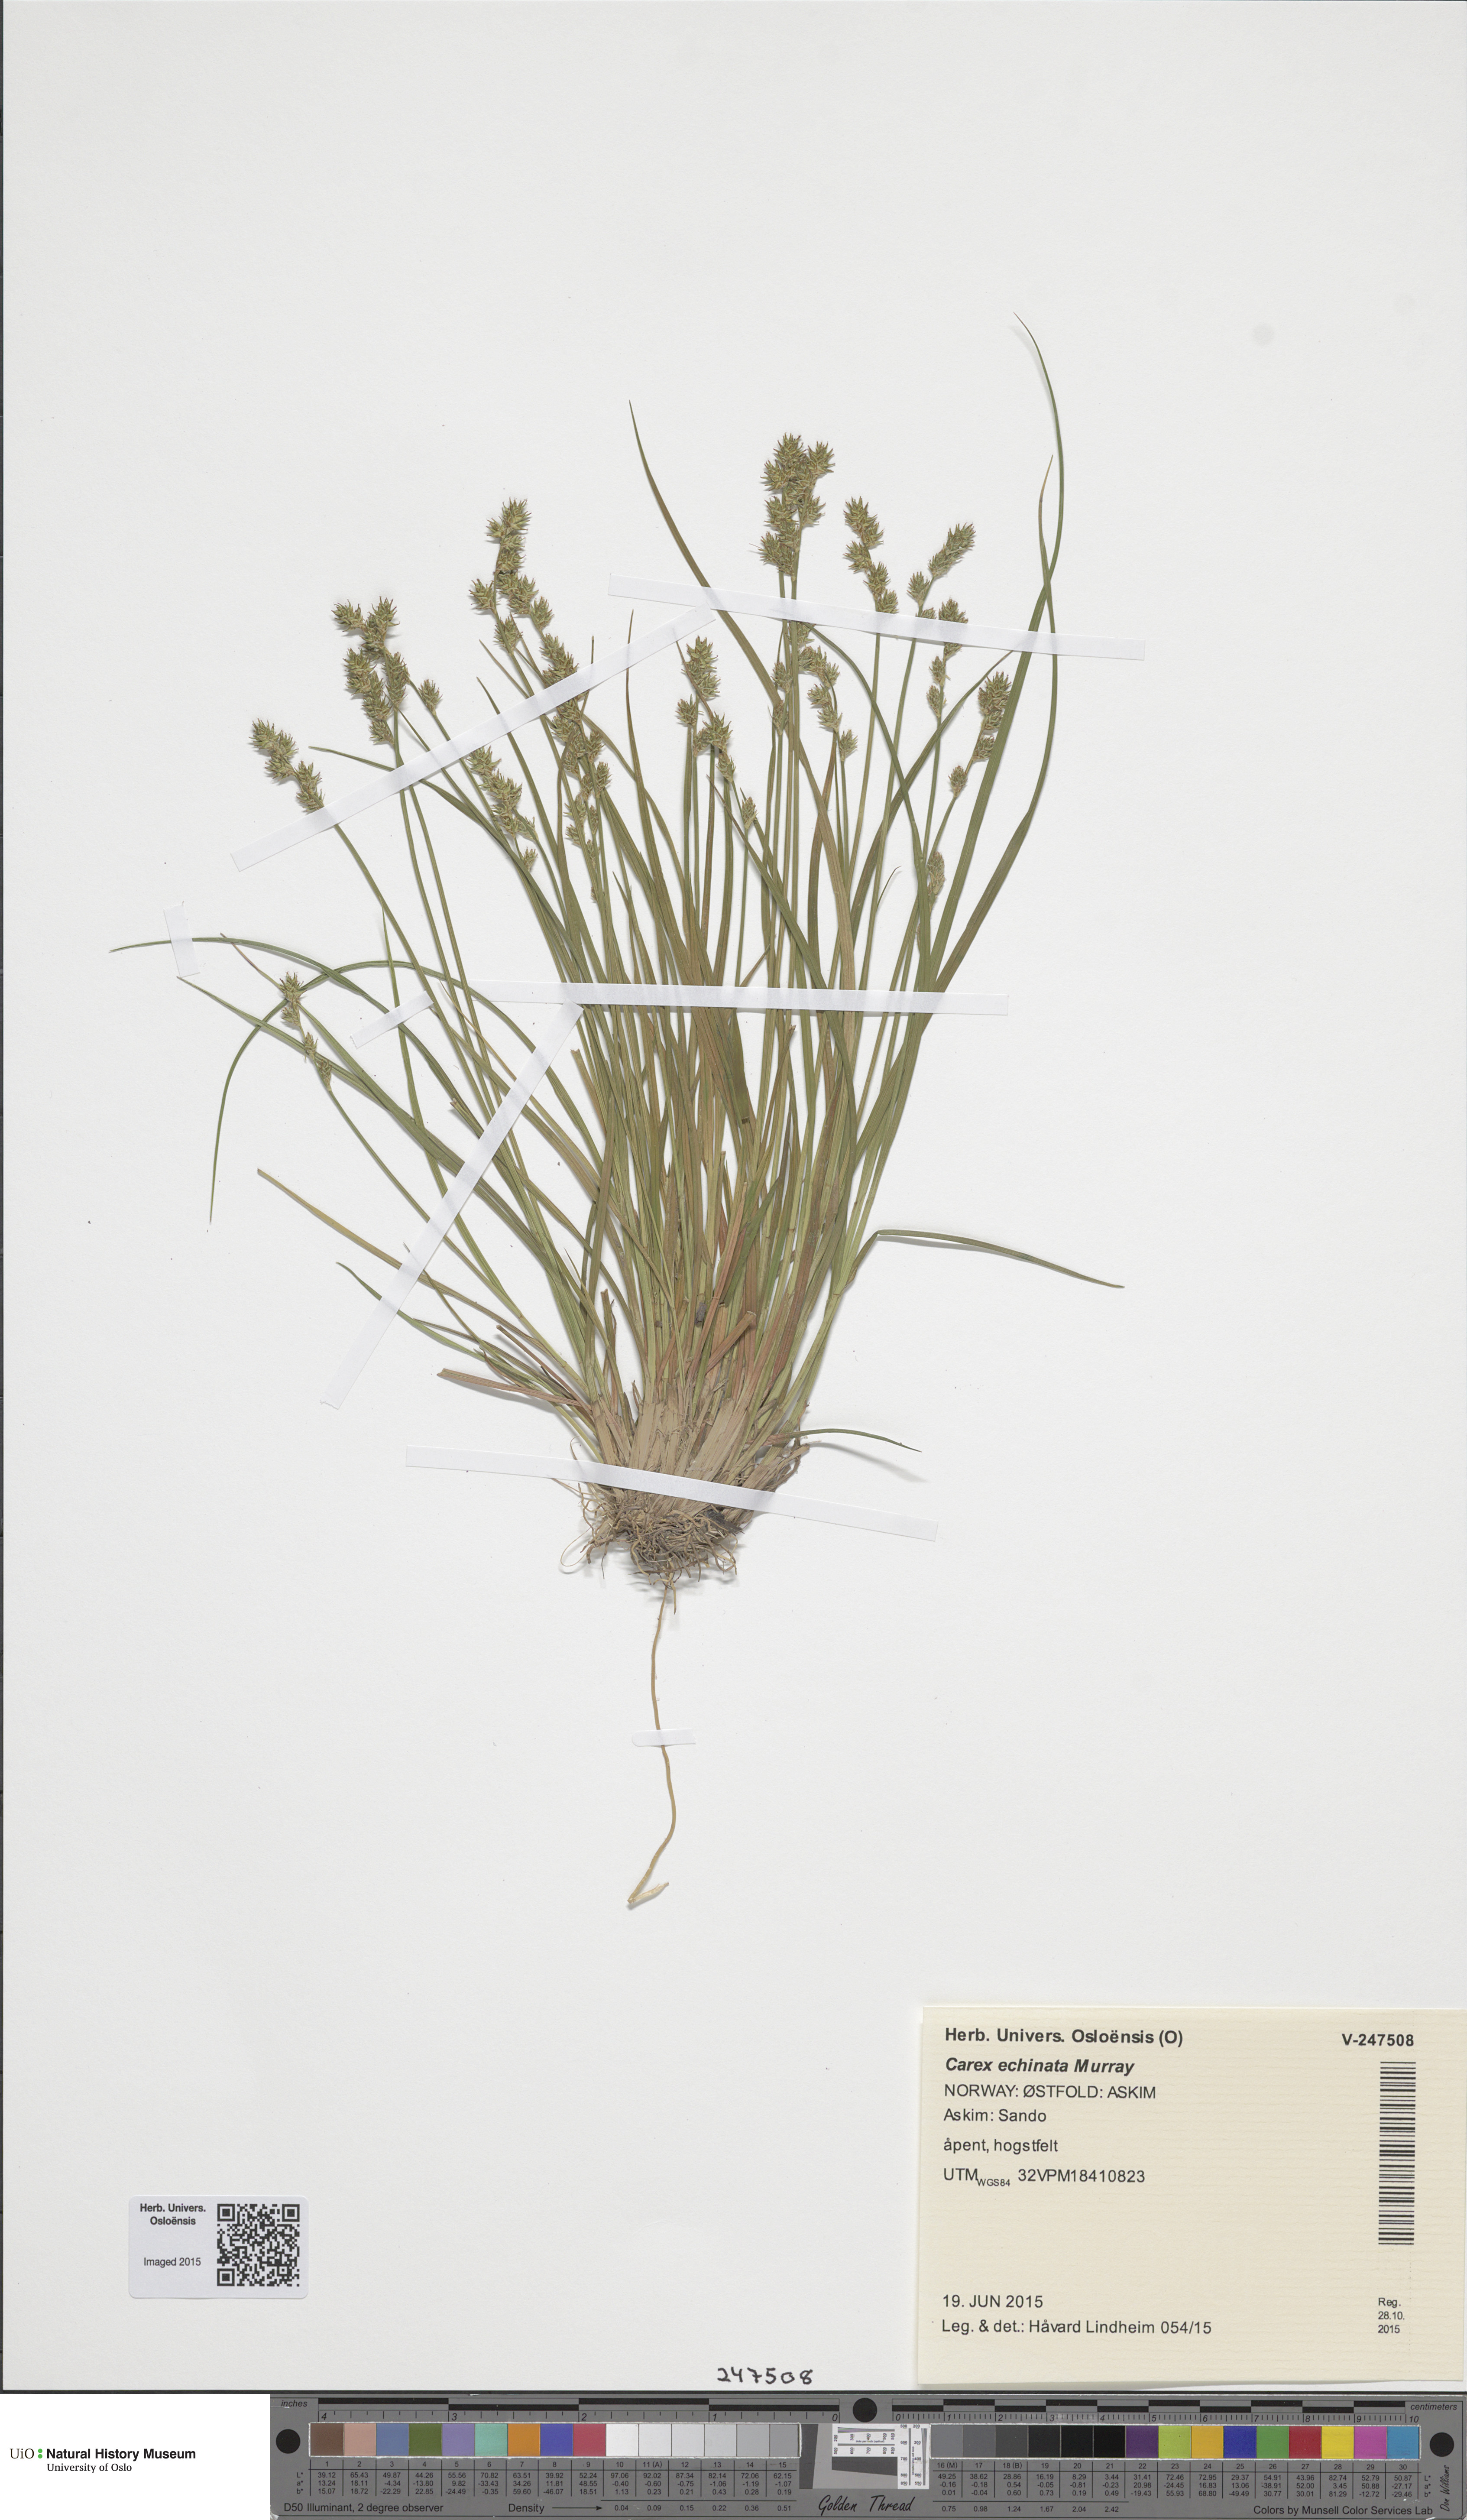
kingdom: Plantae
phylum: Tracheophyta
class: Liliopsida
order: Poales
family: Cyperaceae
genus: Carex
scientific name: Carex echinata
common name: Star sedge
